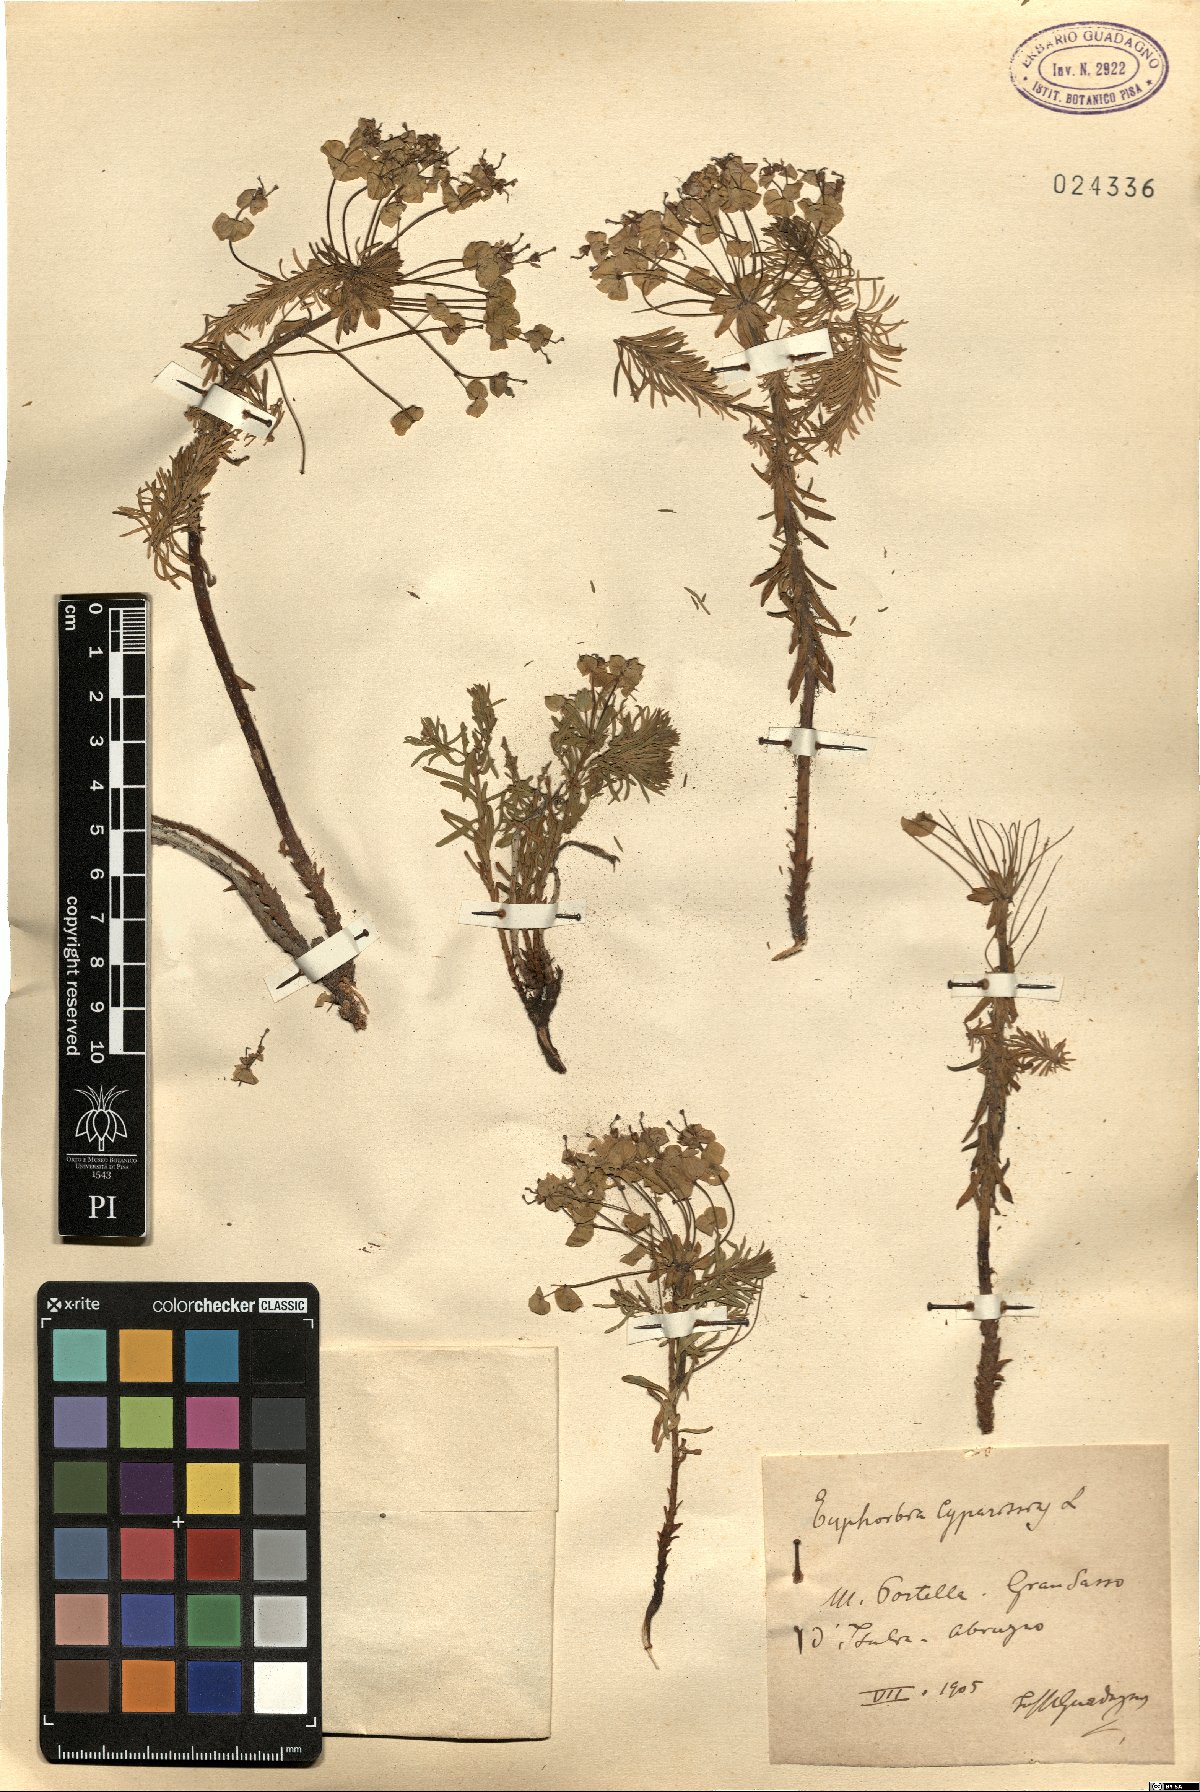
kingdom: Plantae
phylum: Tracheophyta
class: Magnoliopsida
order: Malpighiales
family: Euphorbiaceae
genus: Euphorbia
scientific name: Euphorbia cyparissias
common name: Cypress spurge
